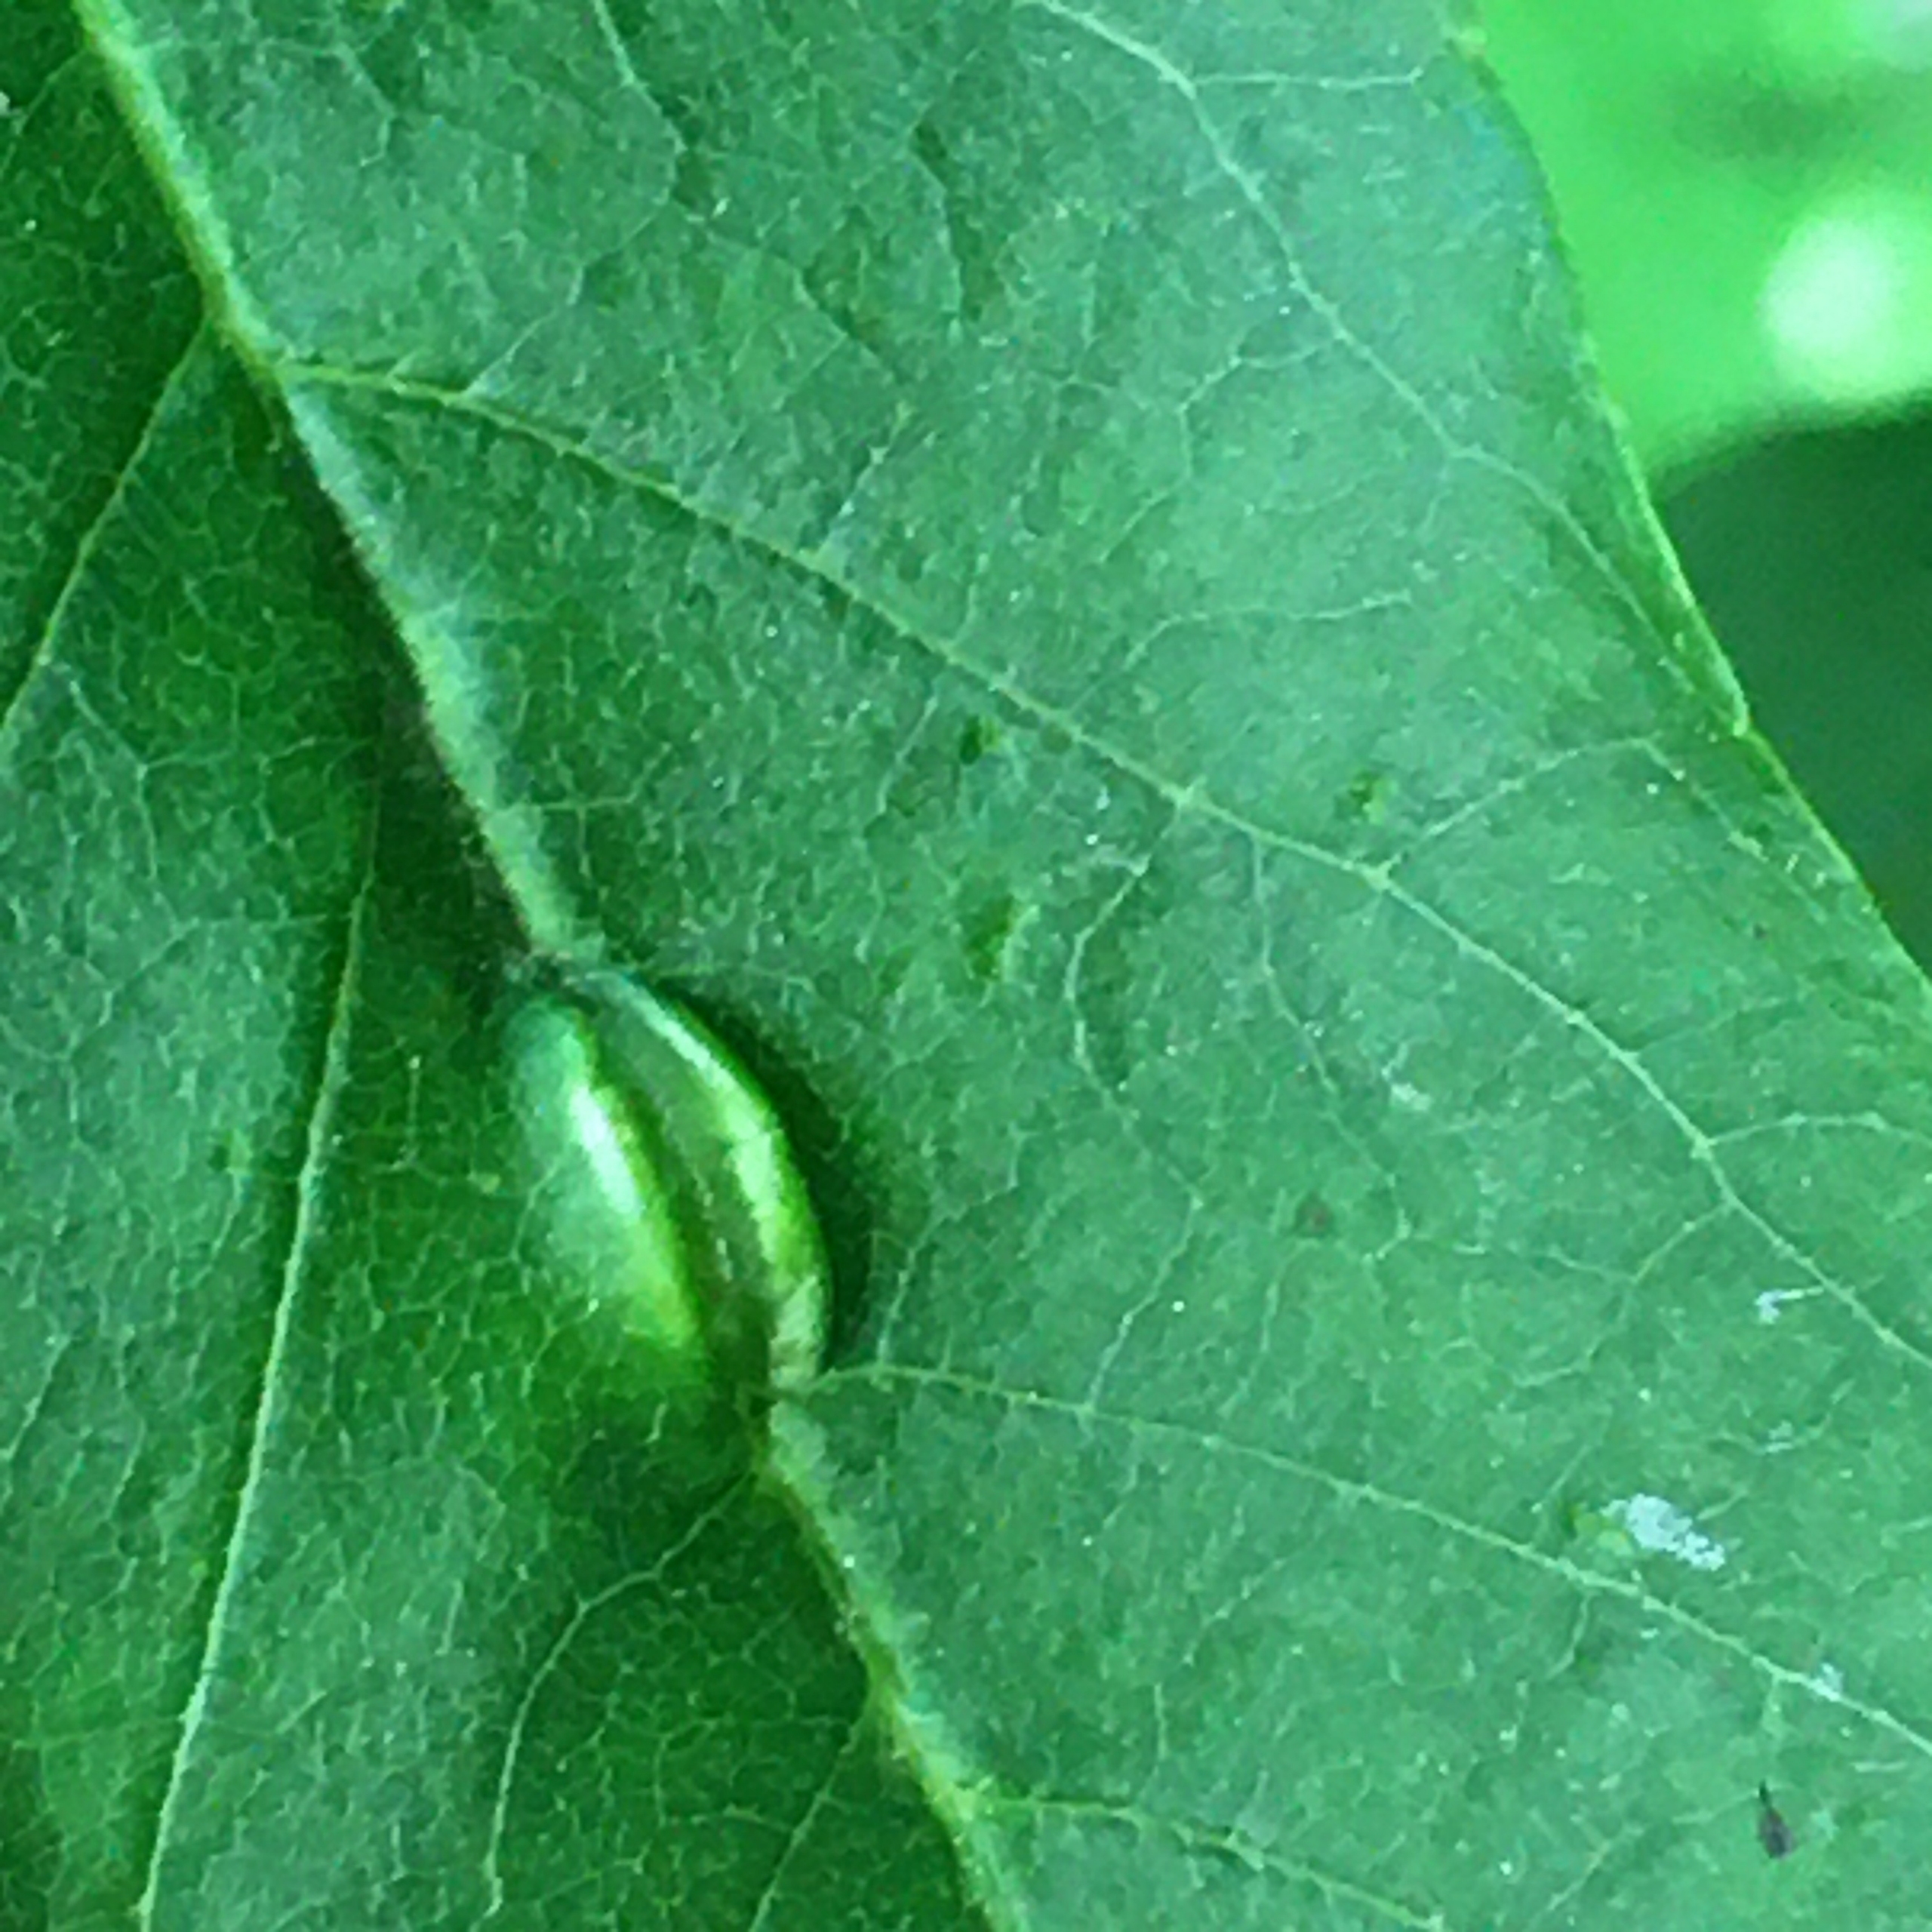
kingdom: Animalia
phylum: Arthropoda
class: Insecta
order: Diptera
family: Cecidomyiidae
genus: Dasineura
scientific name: Dasineura fraxini
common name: Orange askebladgalmyg
